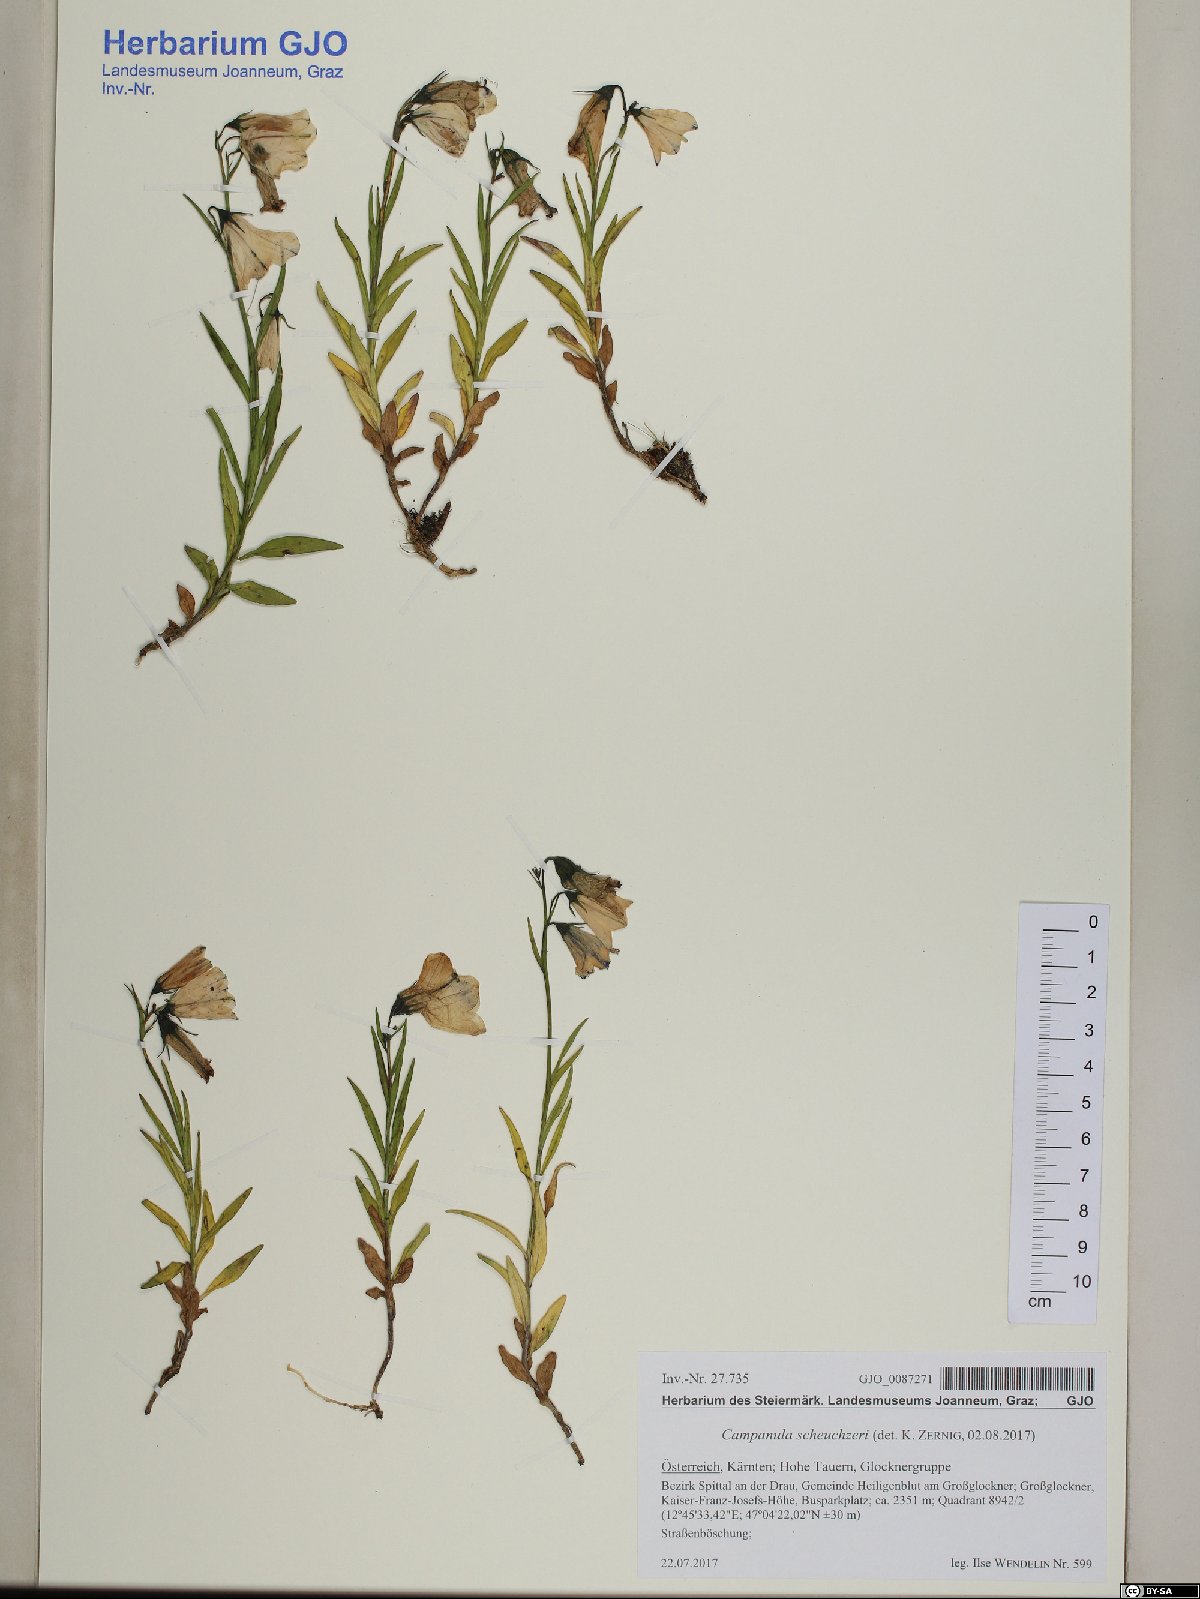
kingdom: Plantae
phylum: Tracheophyta
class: Magnoliopsida
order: Asterales
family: Campanulaceae
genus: Campanula
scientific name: Campanula scheuchzeri
